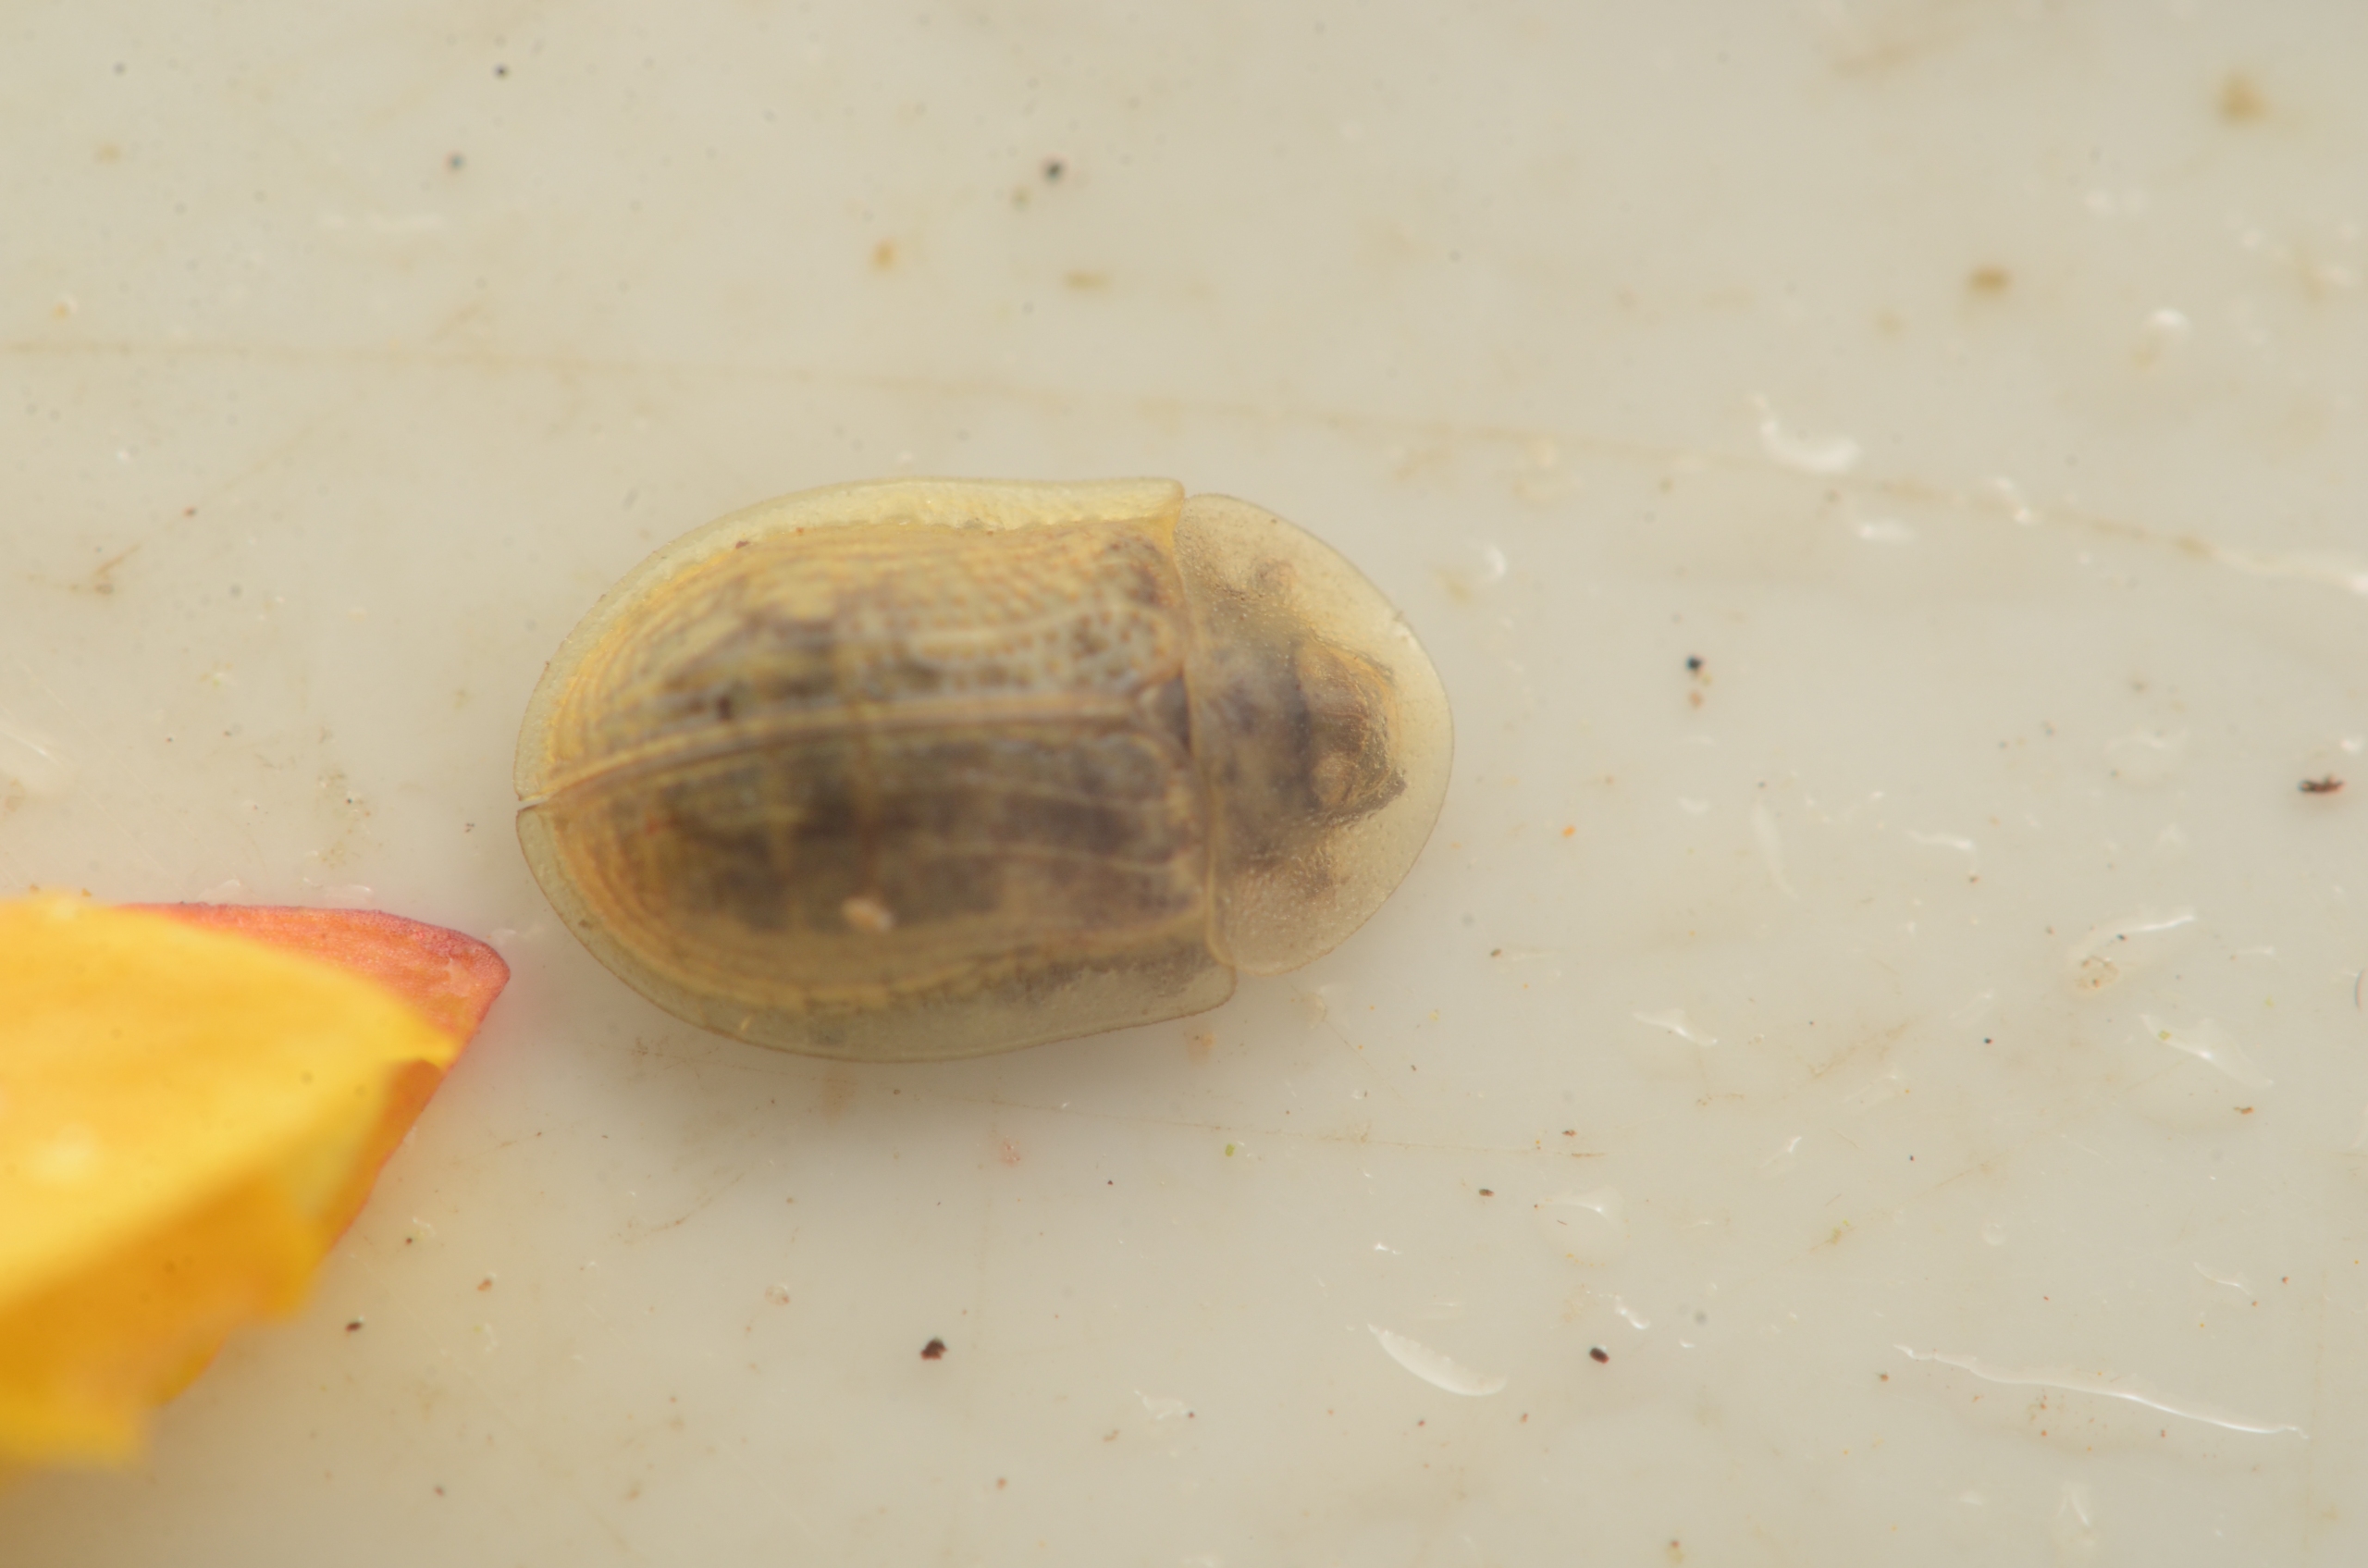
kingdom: Animalia
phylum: Arthropoda
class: Insecta
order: Coleoptera
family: Chrysomelidae
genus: Cassida
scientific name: Cassida flaveola
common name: Gulbrun skjoldbille
